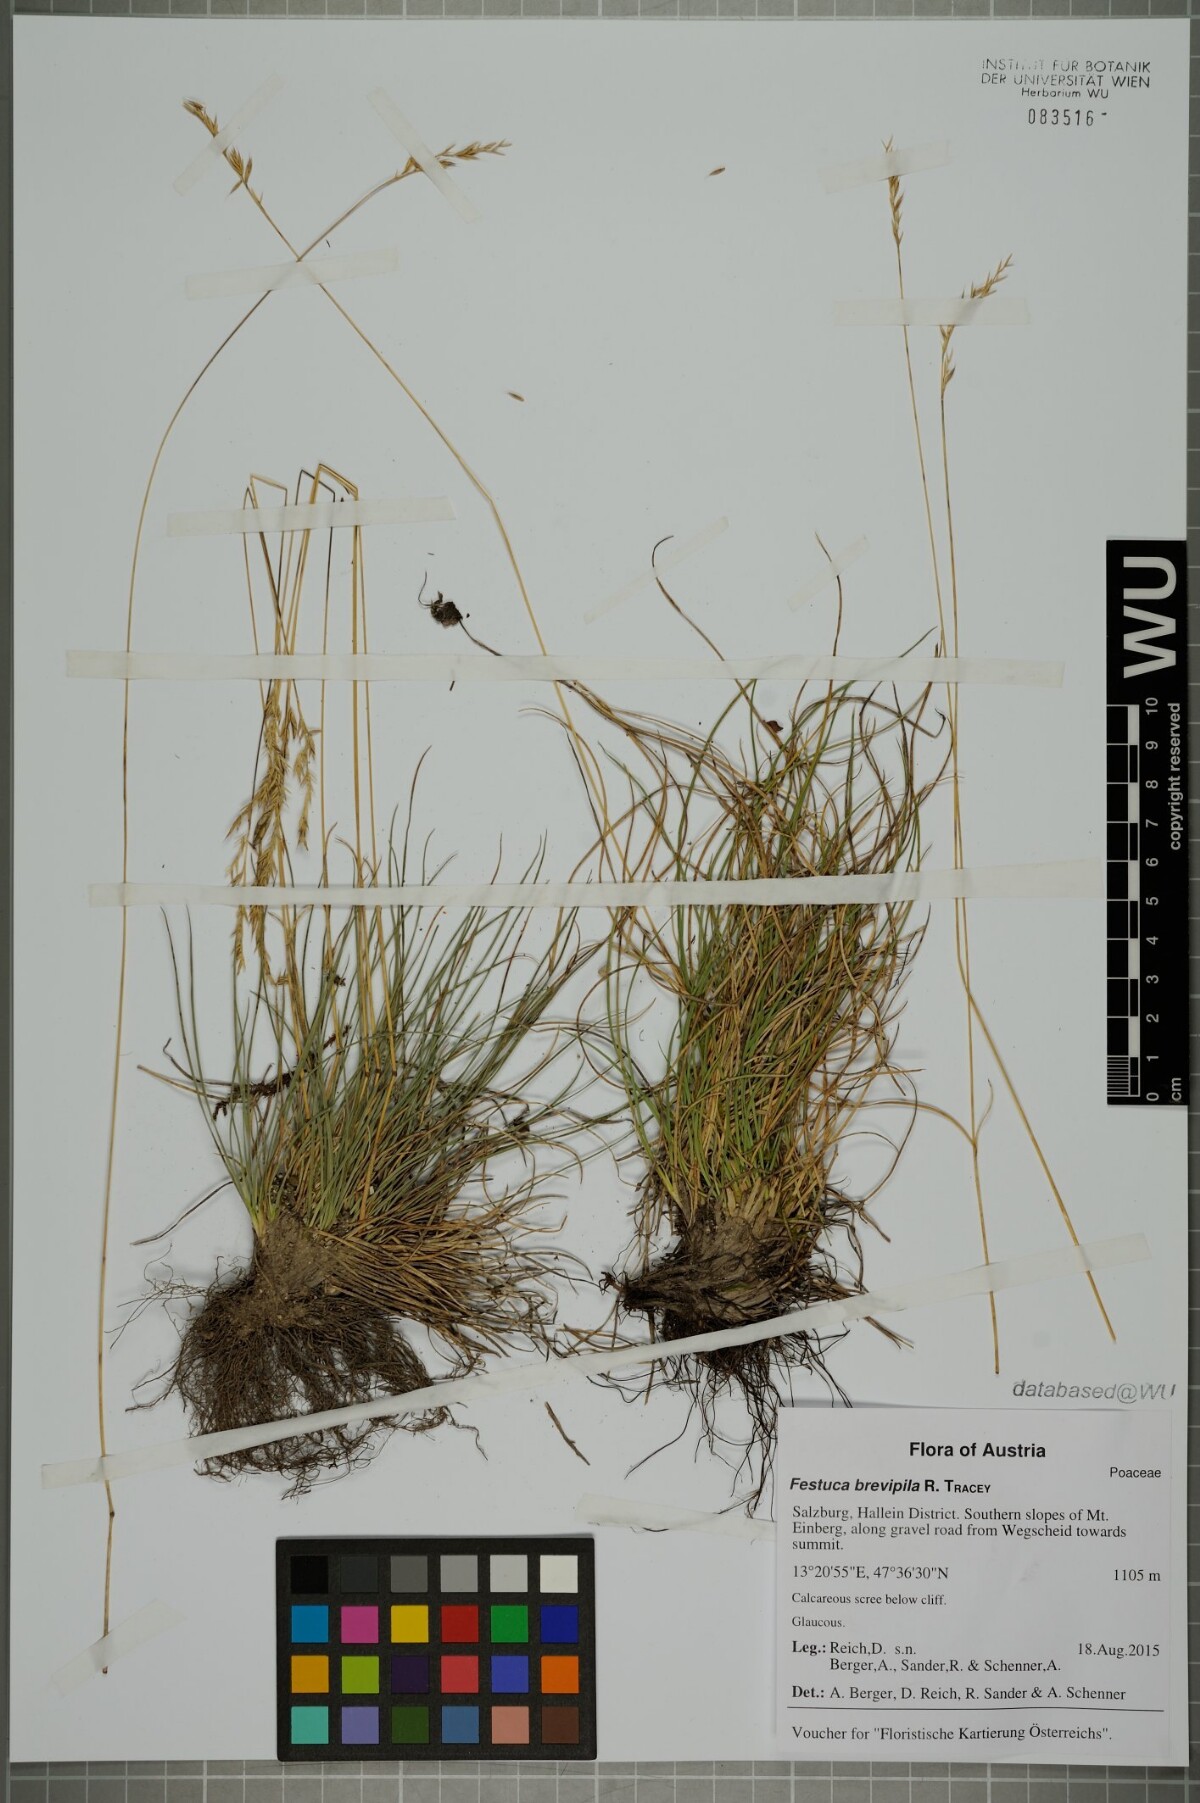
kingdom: Plantae
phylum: Tracheophyta
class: Liliopsida
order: Poales
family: Poaceae
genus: Festuca
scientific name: Festuca trachyphylla
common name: Hard fescue
